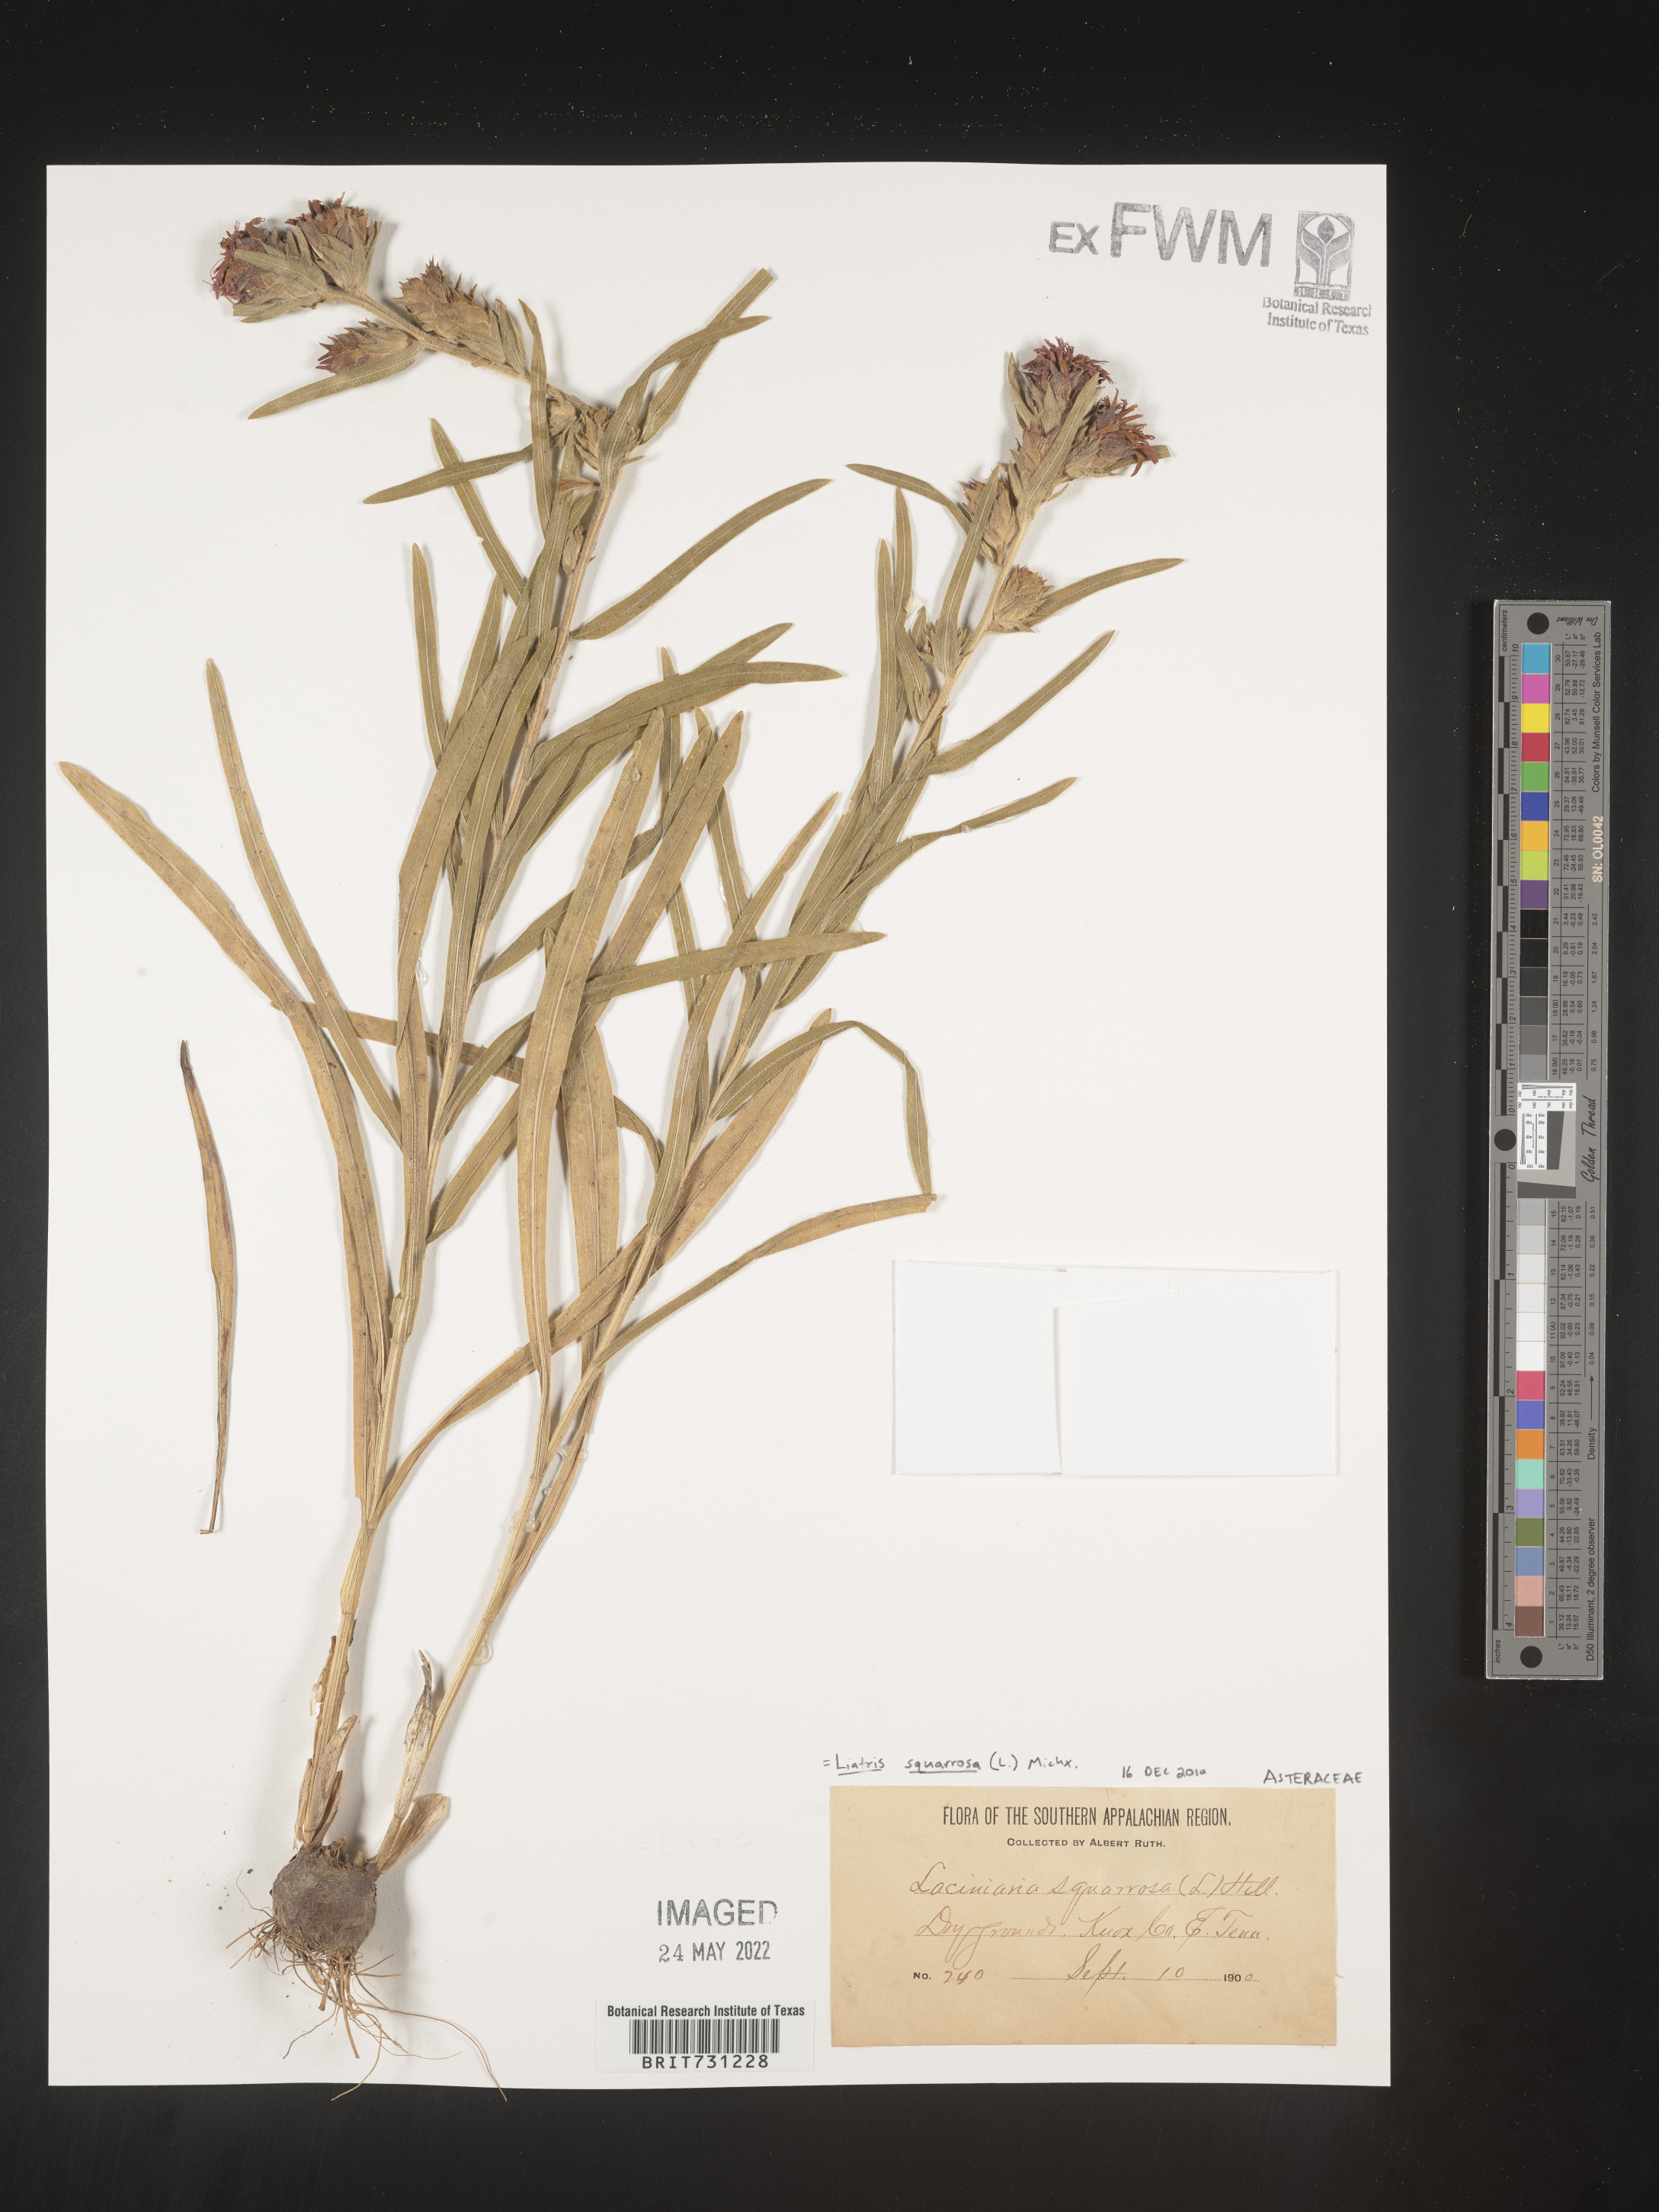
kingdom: Plantae
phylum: Tracheophyta
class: Magnoliopsida
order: Asterales
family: Asteraceae
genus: Liatris
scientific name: Liatris squarrosa
